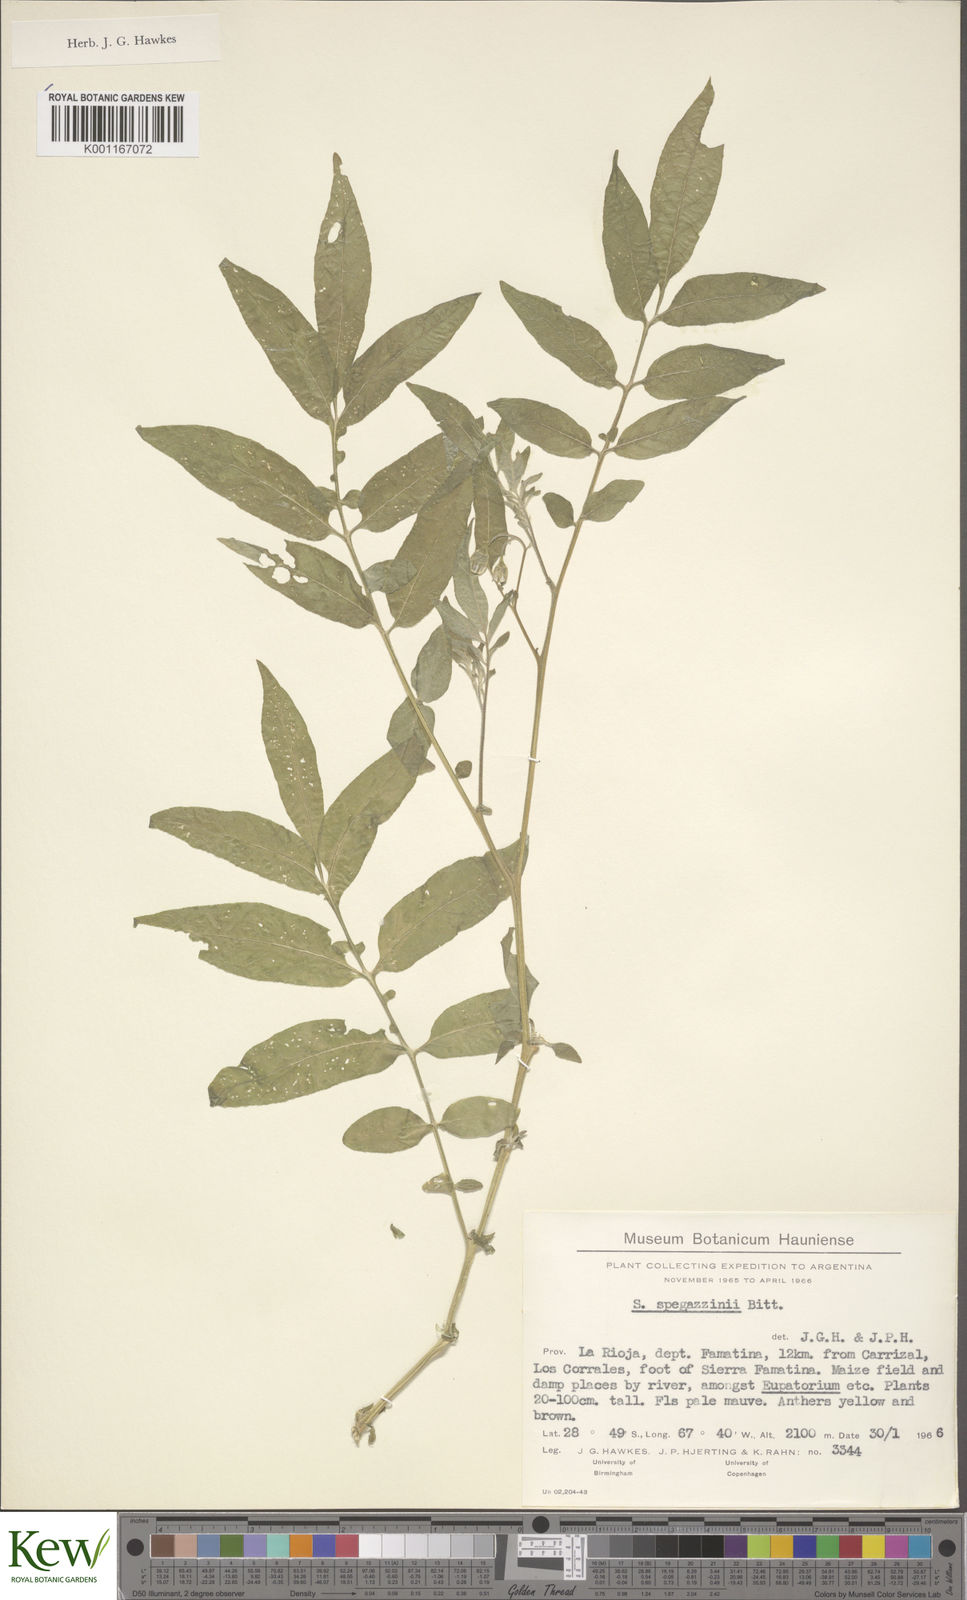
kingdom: Plantae
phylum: Tracheophyta
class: Magnoliopsida
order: Solanales
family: Solanaceae
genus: Solanum
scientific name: Solanum brevicaule
